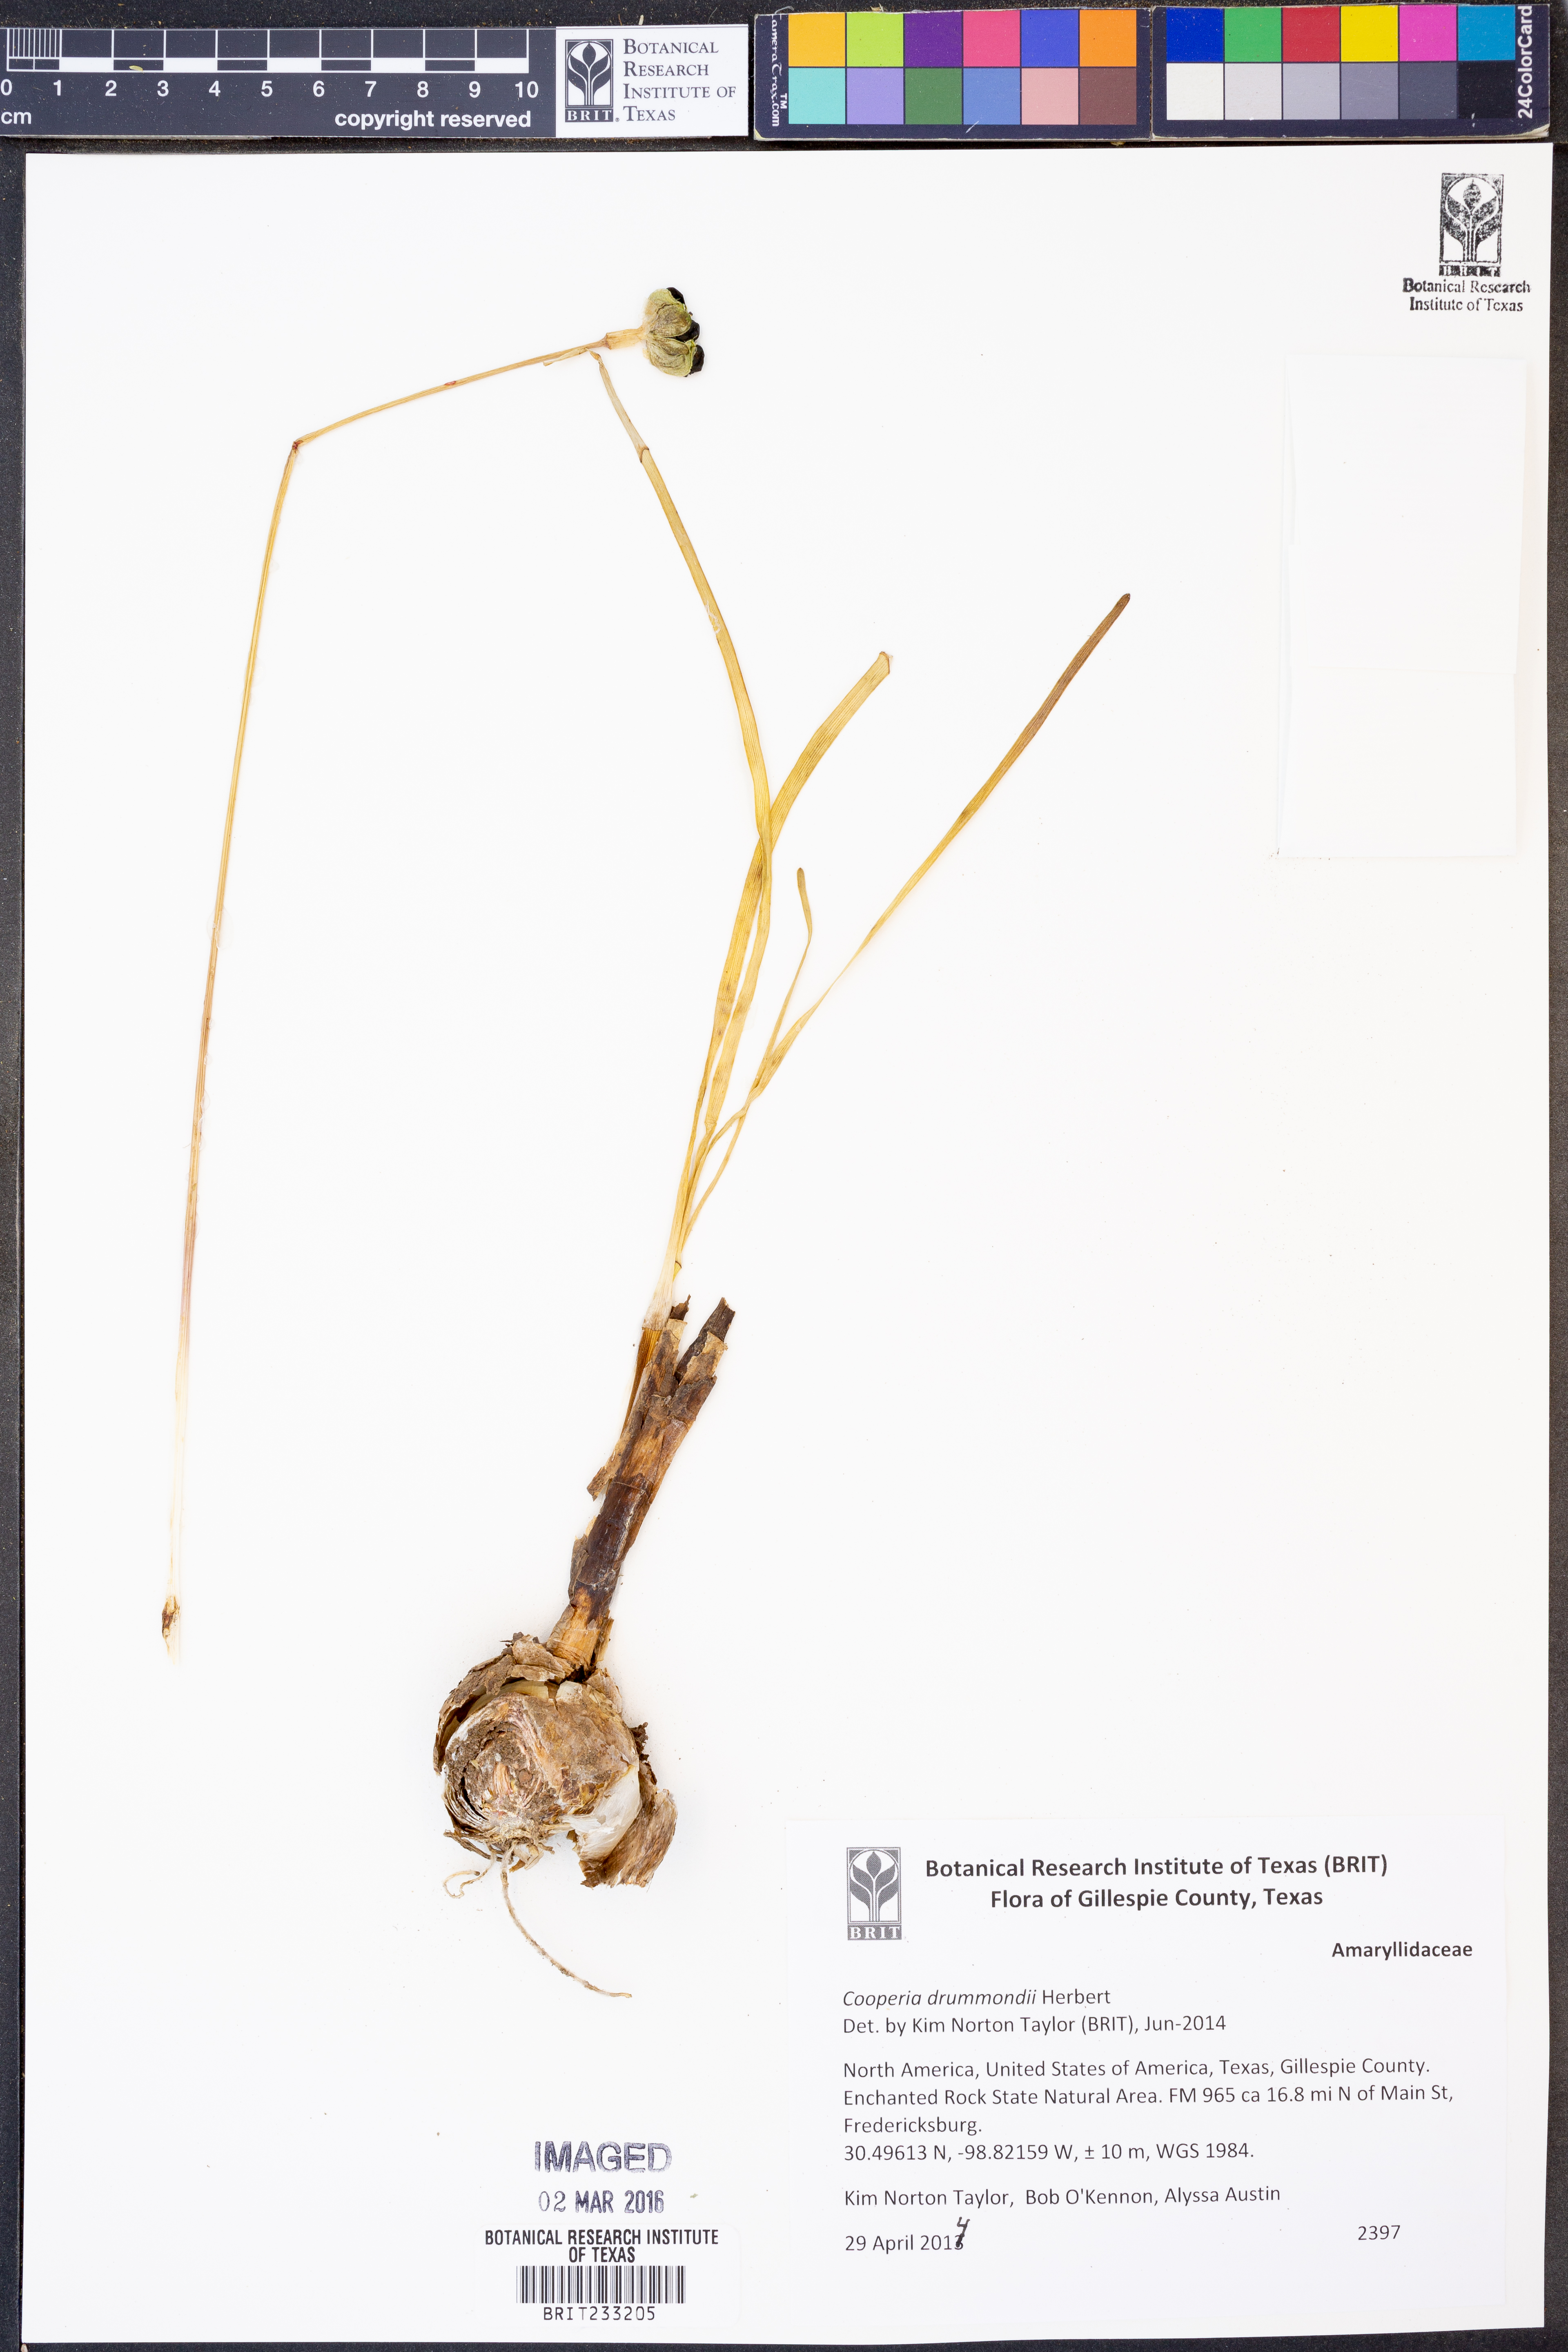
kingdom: Plantae
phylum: Tracheophyta
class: Liliopsida
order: Asparagales
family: Amaryllidaceae
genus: Zephyranthes
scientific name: Zephyranthes chlorosolen
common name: Evening rain-lily
